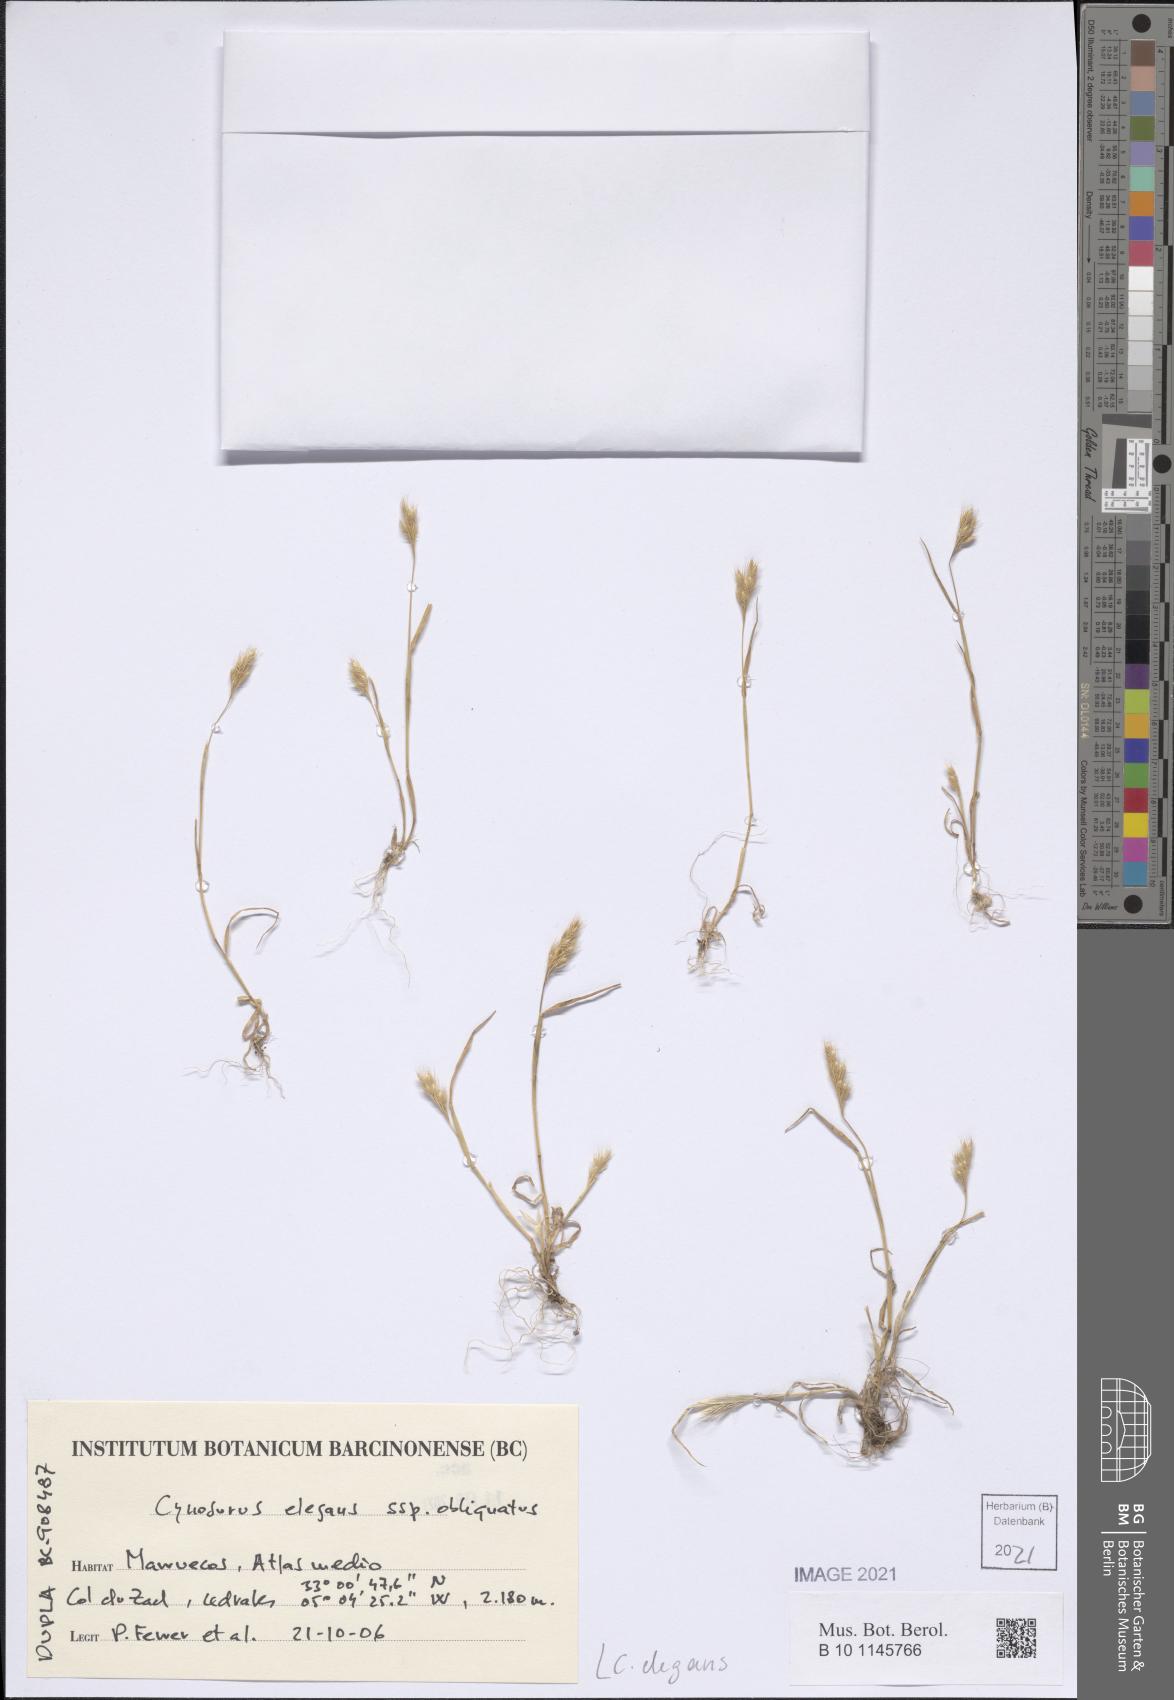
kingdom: Plantae
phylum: Tracheophyta
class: Liliopsida
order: Poales
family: Poaceae
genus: Cynosurus
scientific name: Cynosurus elegans
